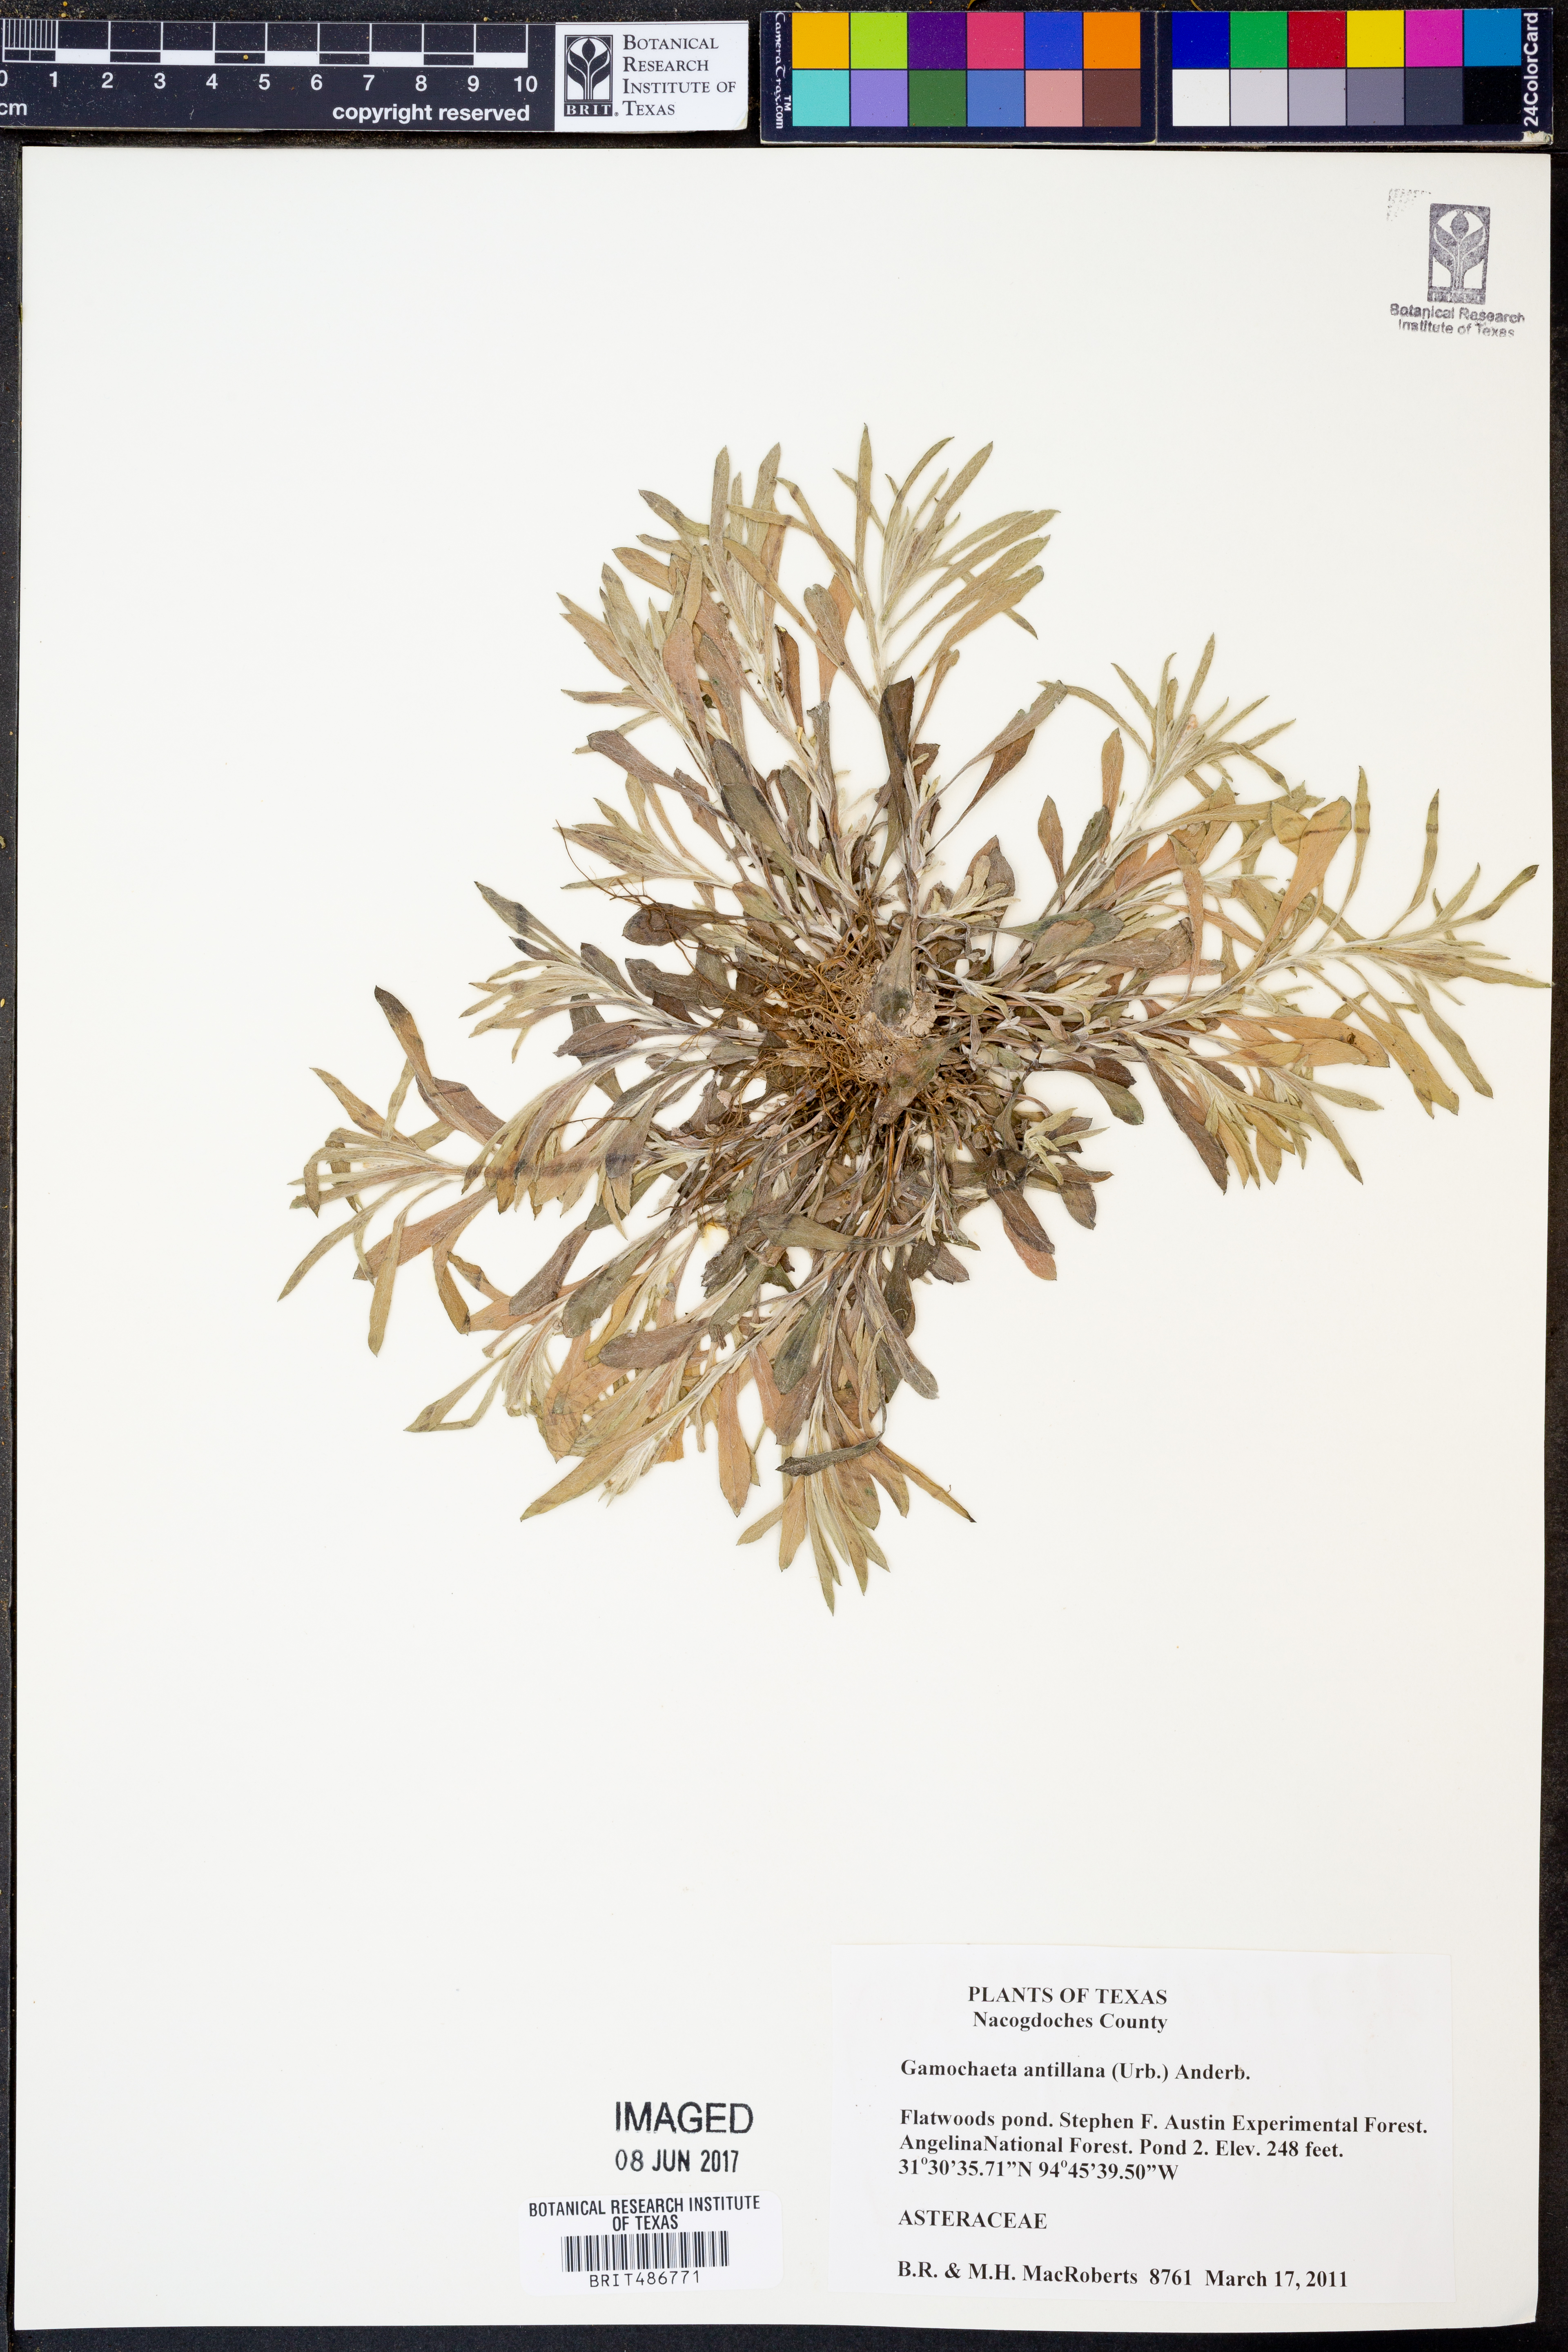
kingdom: Plantae
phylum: Tracheophyta
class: Magnoliopsida
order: Asterales
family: Asteraceae
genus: Gamochaeta
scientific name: Gamochaeta antillana
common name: Delicate everlasting
